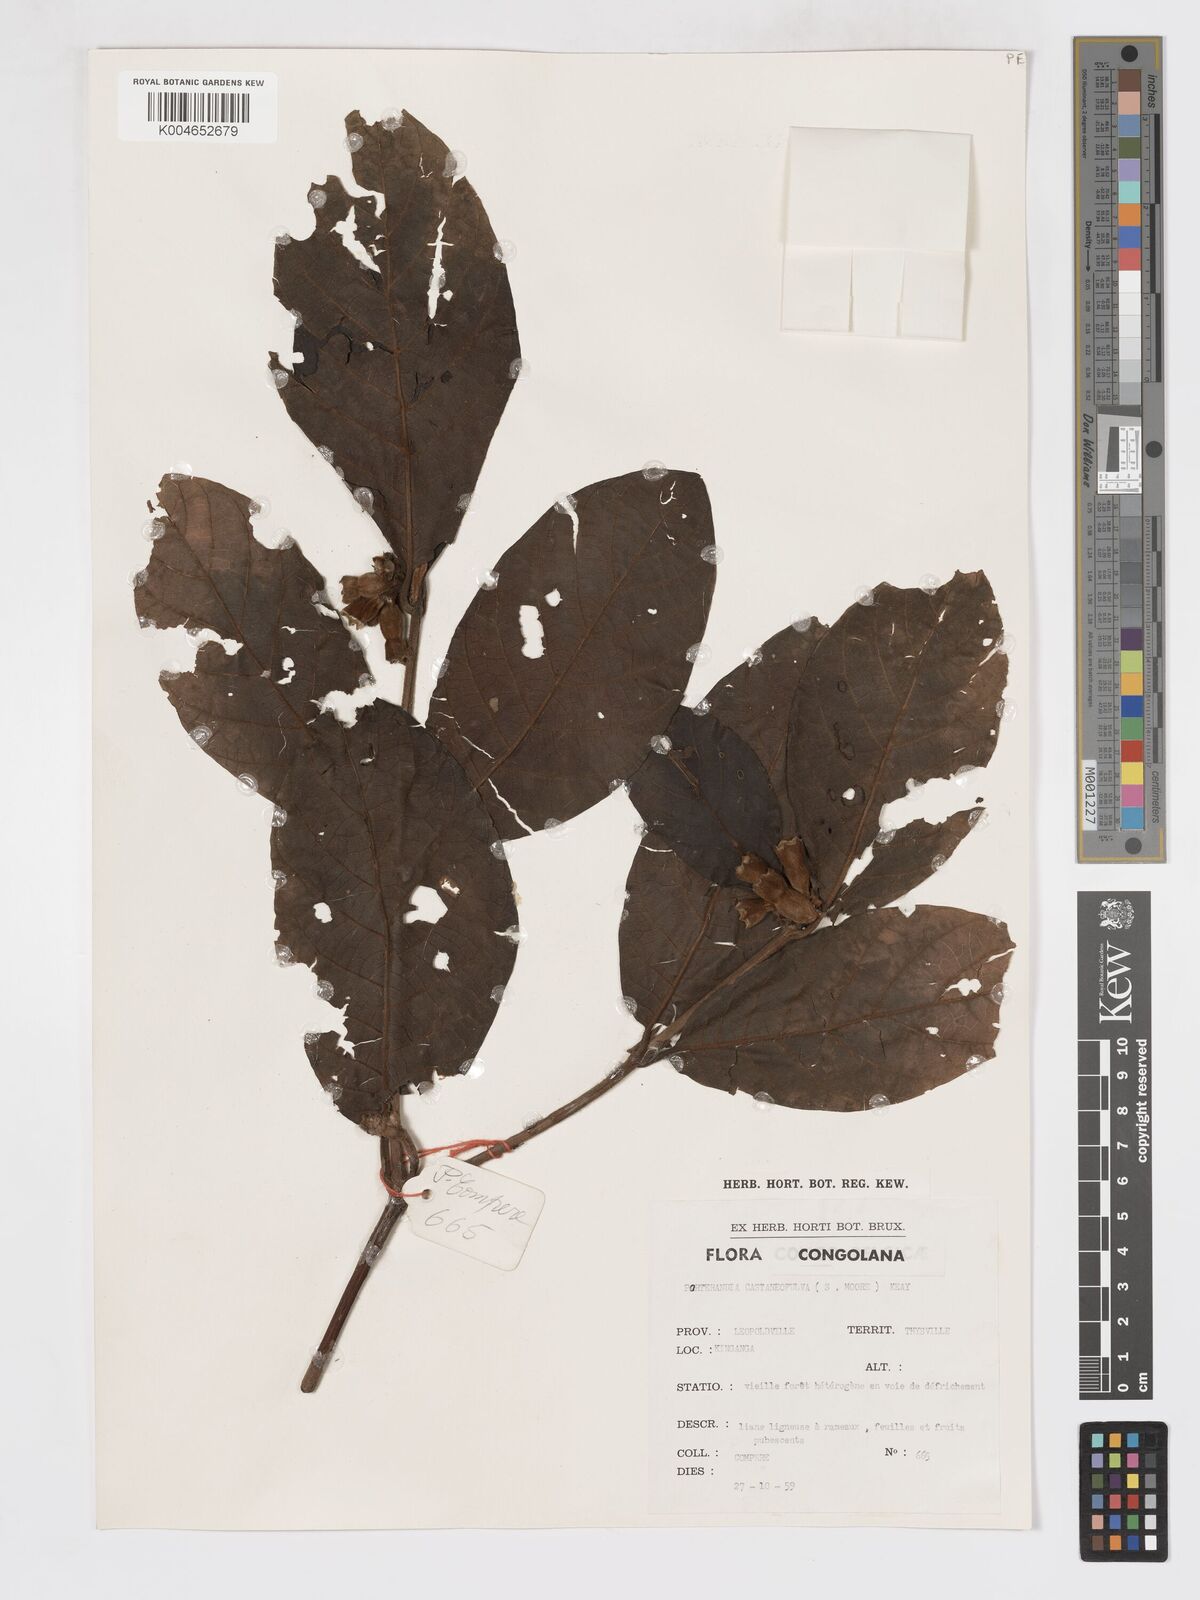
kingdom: Plantae
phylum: Tracheophyta
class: Magnoliopsida
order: Gentianales
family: Rubiaceae
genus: Aoranthe
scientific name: Aoranthe castaneofulva
